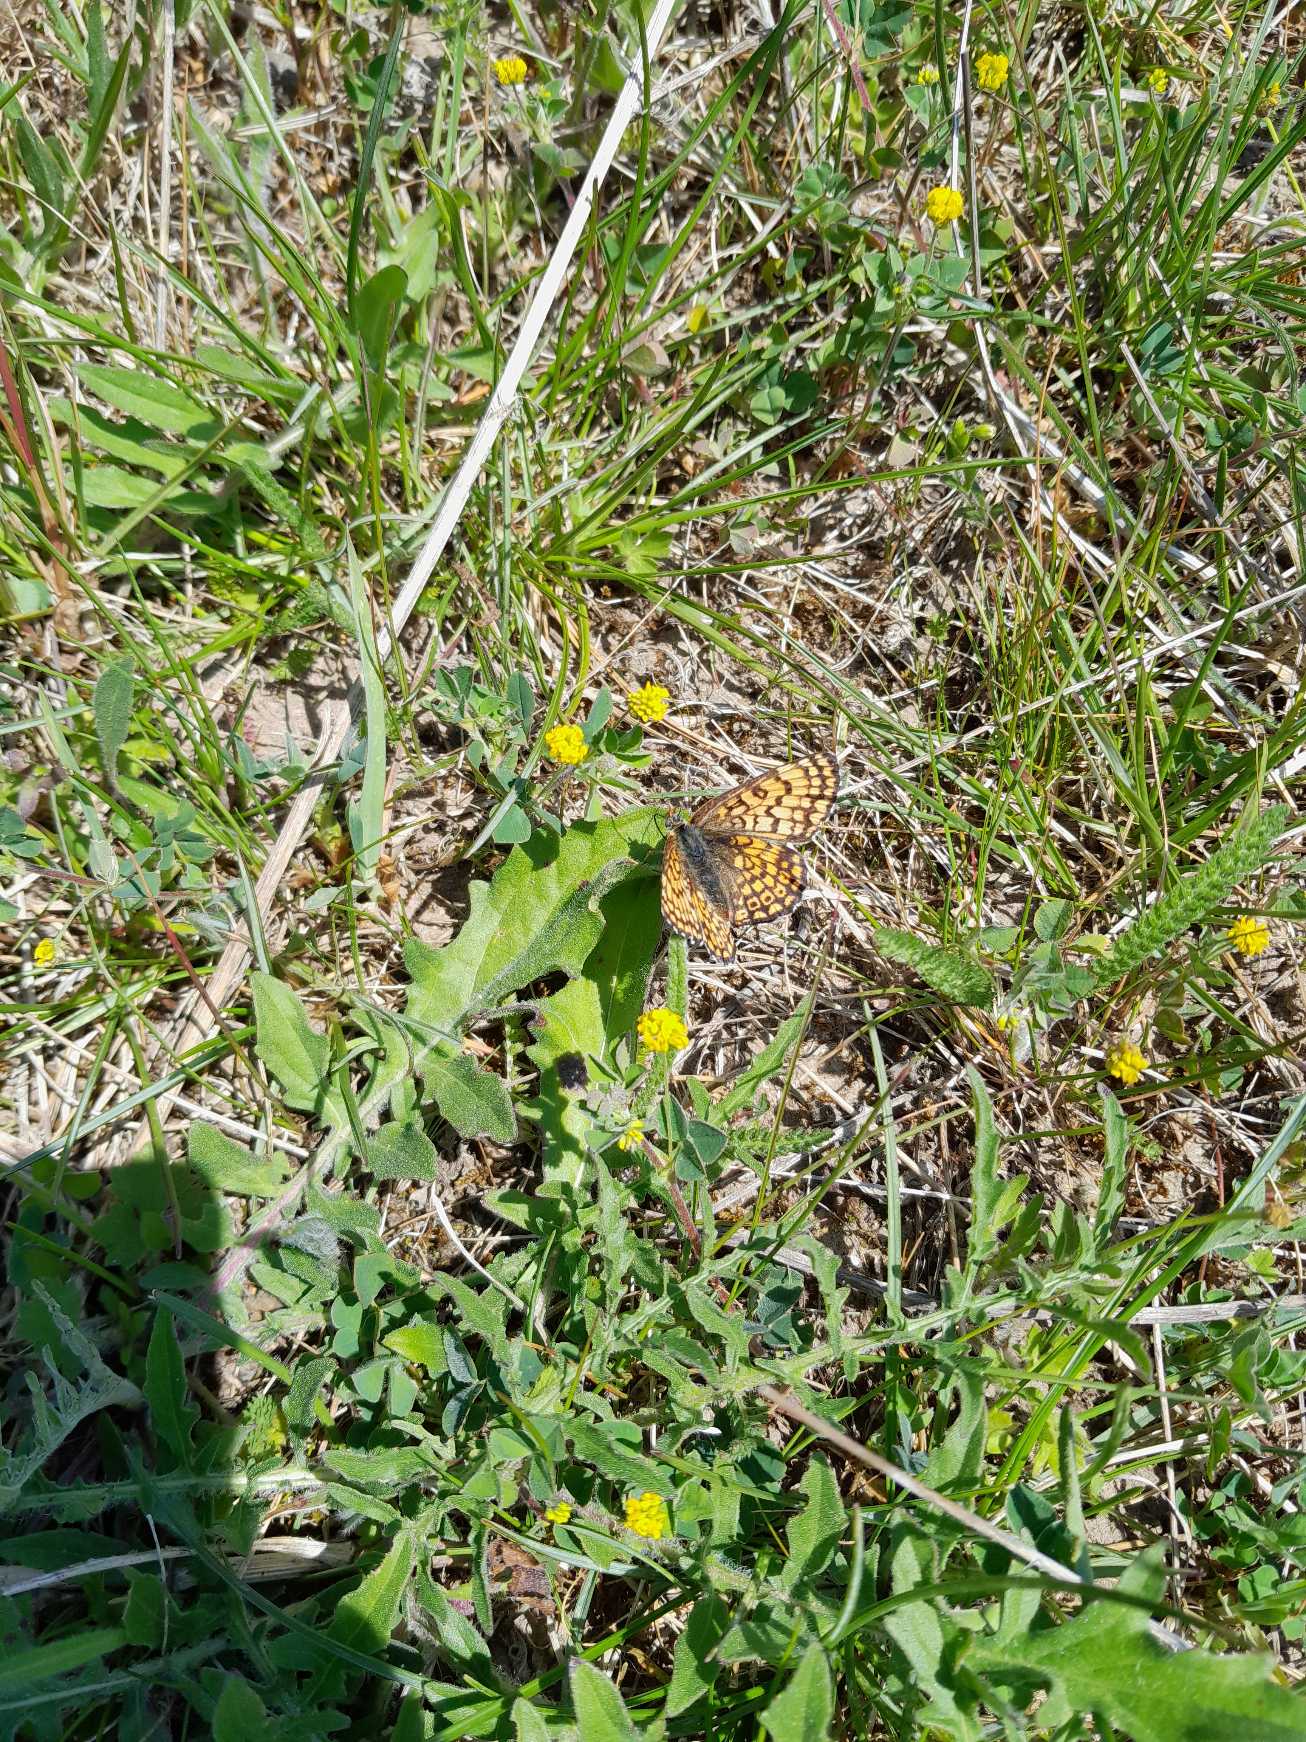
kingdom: Animalia
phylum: Arthropoda
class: Insecta
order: Lepidoptera
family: Nymphalidae
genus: Melitaea
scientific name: Melitaea cinxia
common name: Okkergul pletvinge
